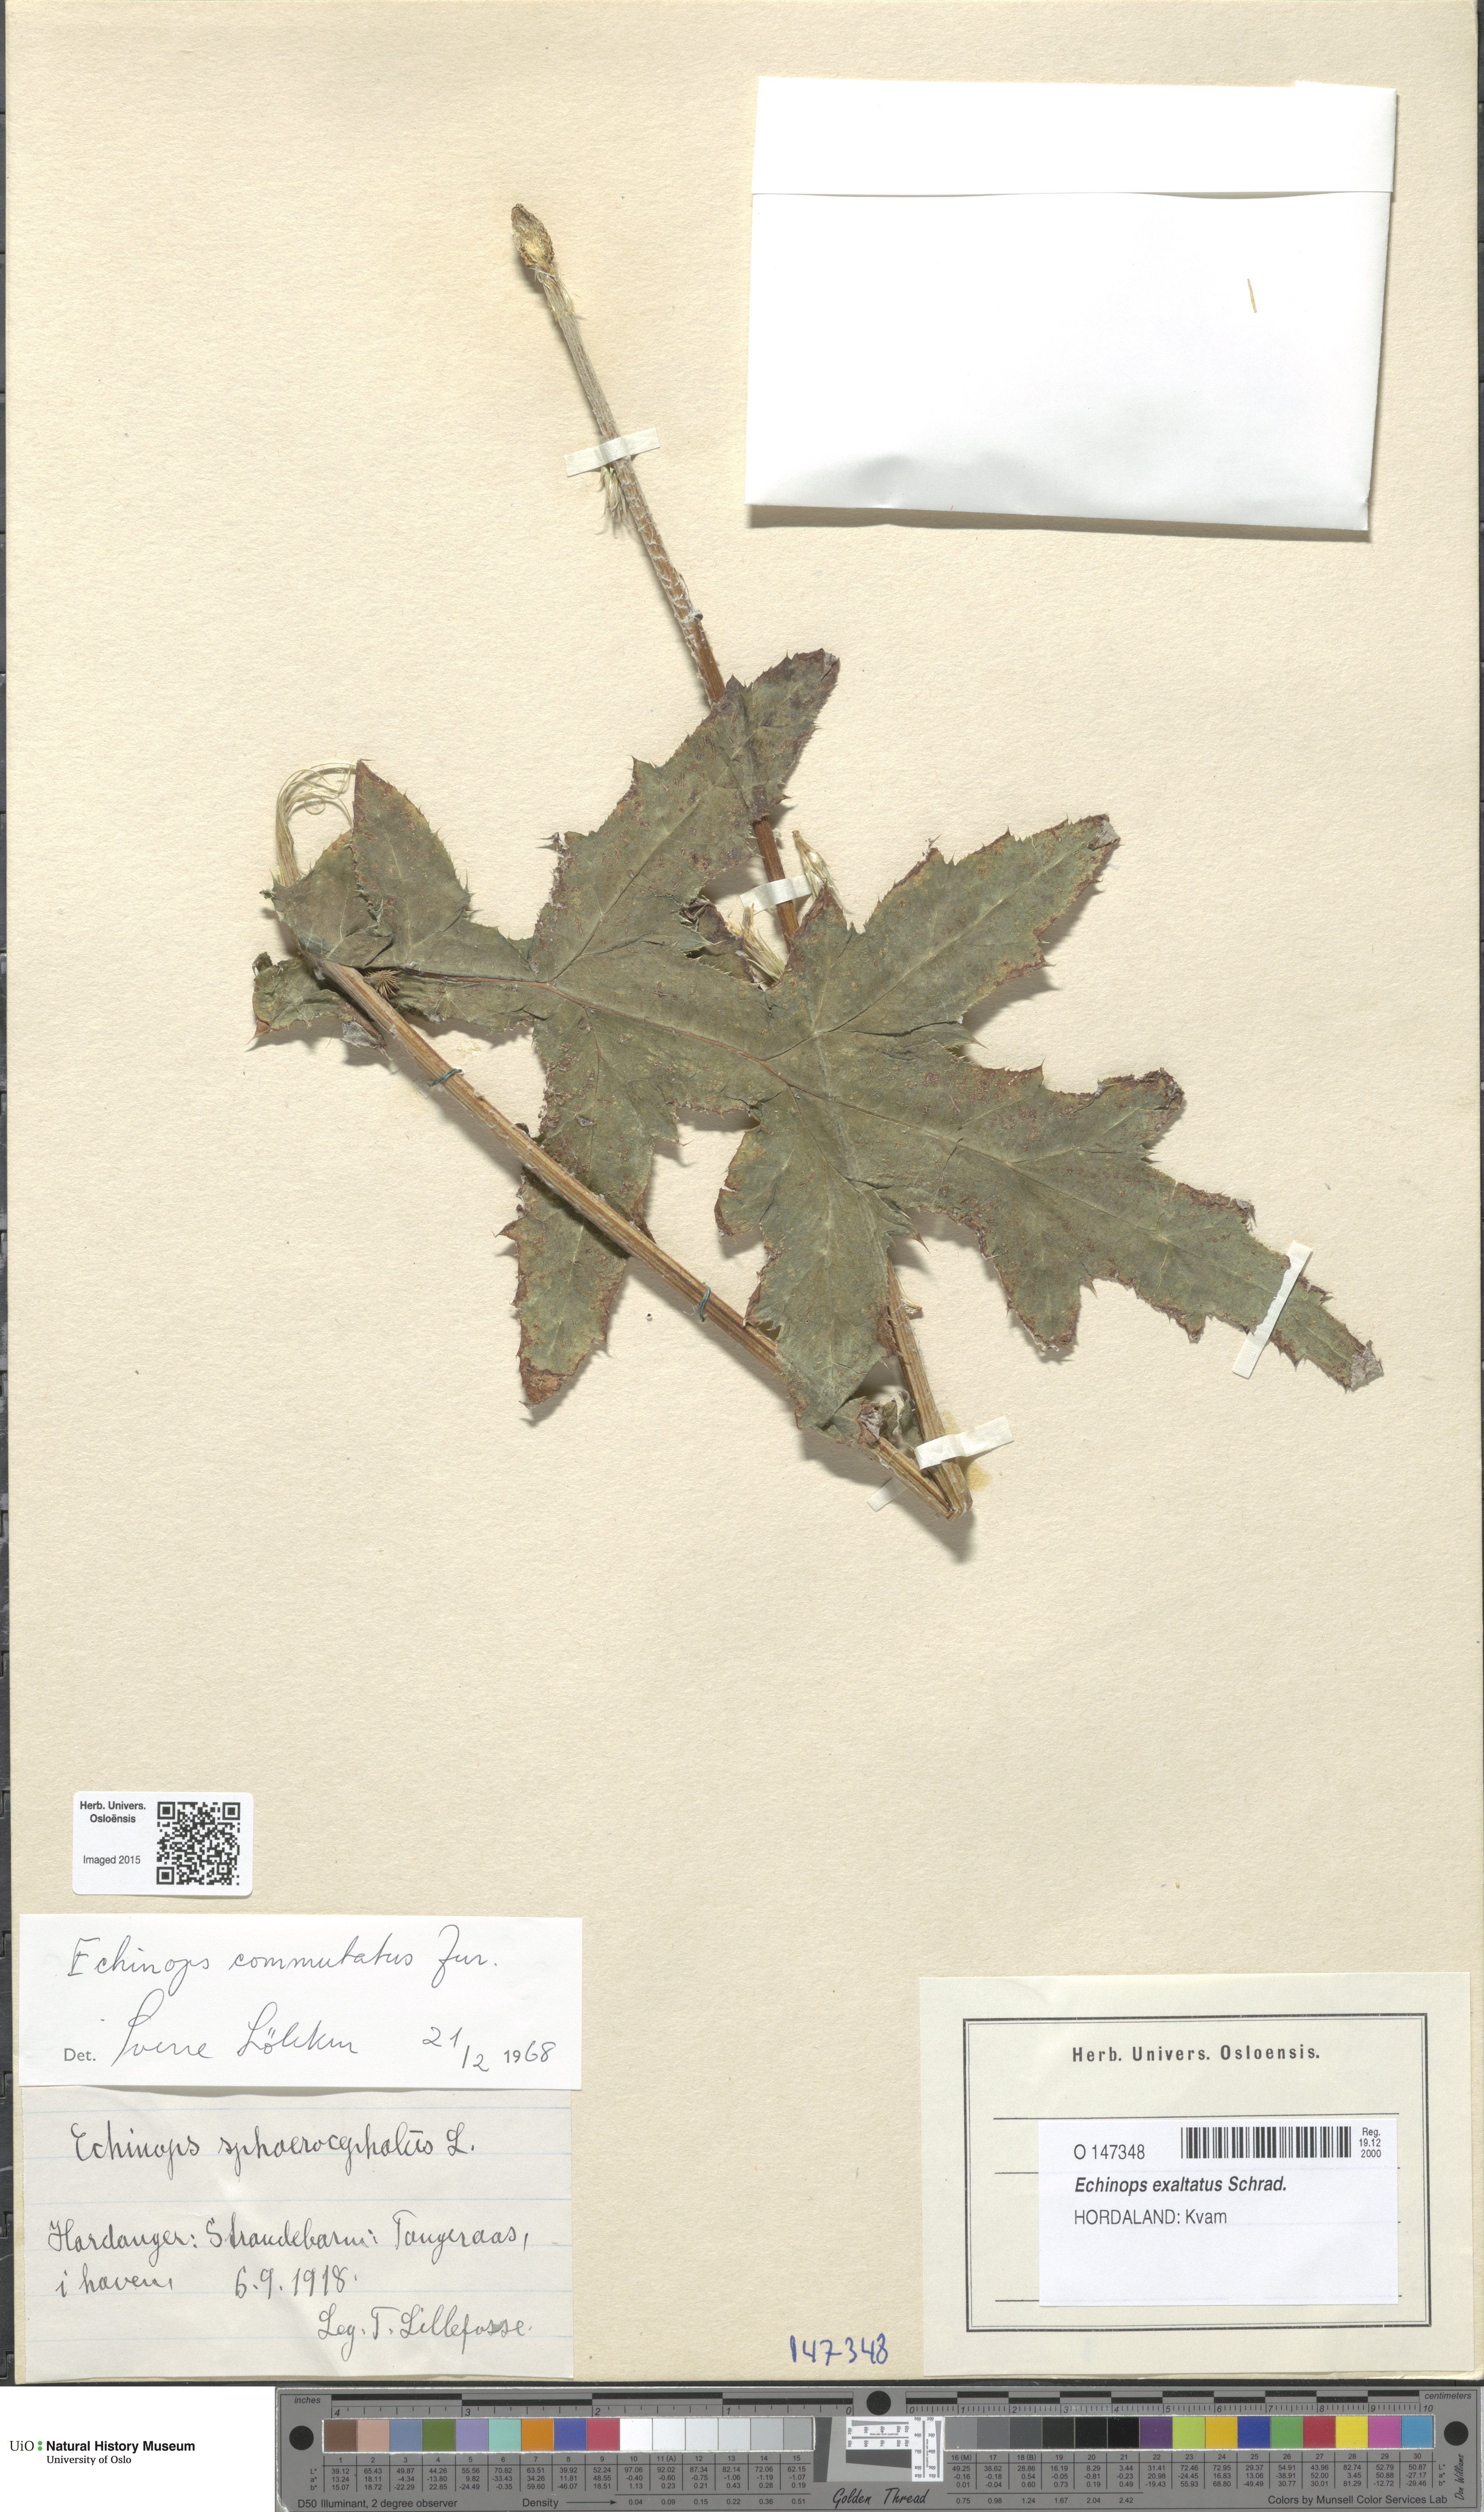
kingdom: Plantae
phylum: Tracheophyta
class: Magnoliopsida
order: Asterales
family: Asteraceae
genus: Echinops
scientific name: Echinops exaltatus
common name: Globe-thistle
